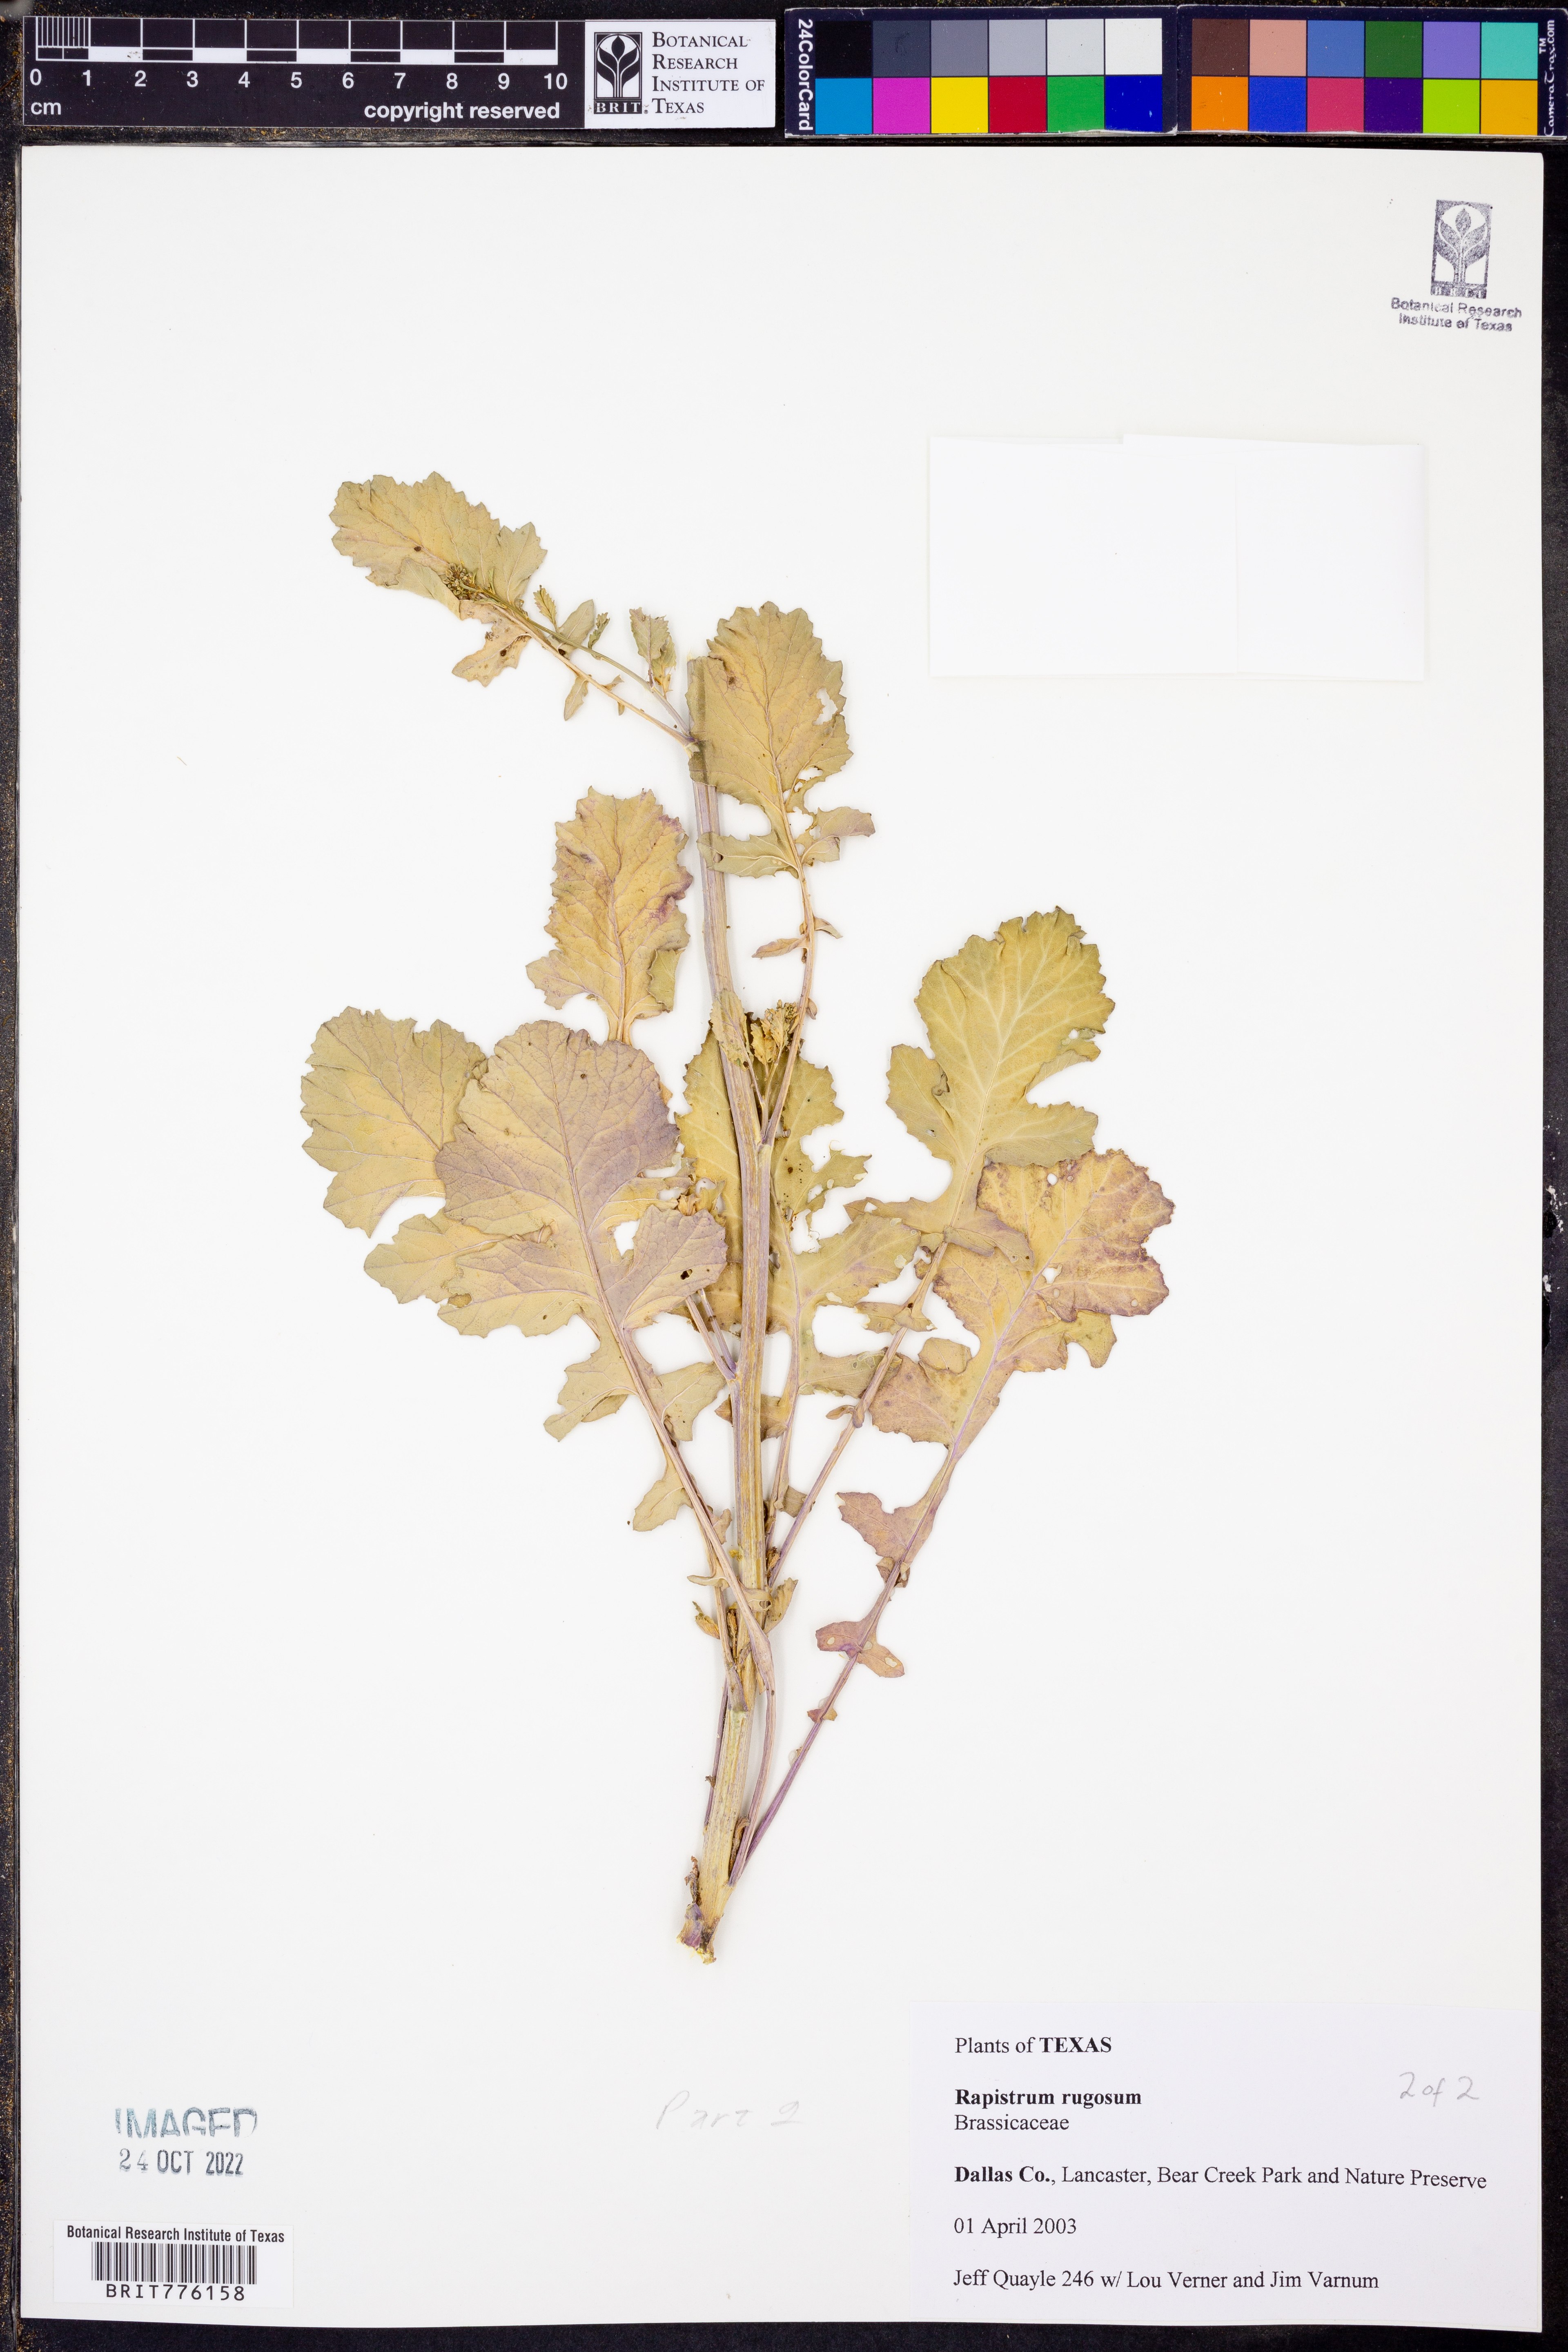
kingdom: Plantae
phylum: Tracheophyta
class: Magnoliopsida
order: Brassicales
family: Brassicaceae
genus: Rapistrum
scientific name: Rapistrum rugosum
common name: Annual bastardcabbage
